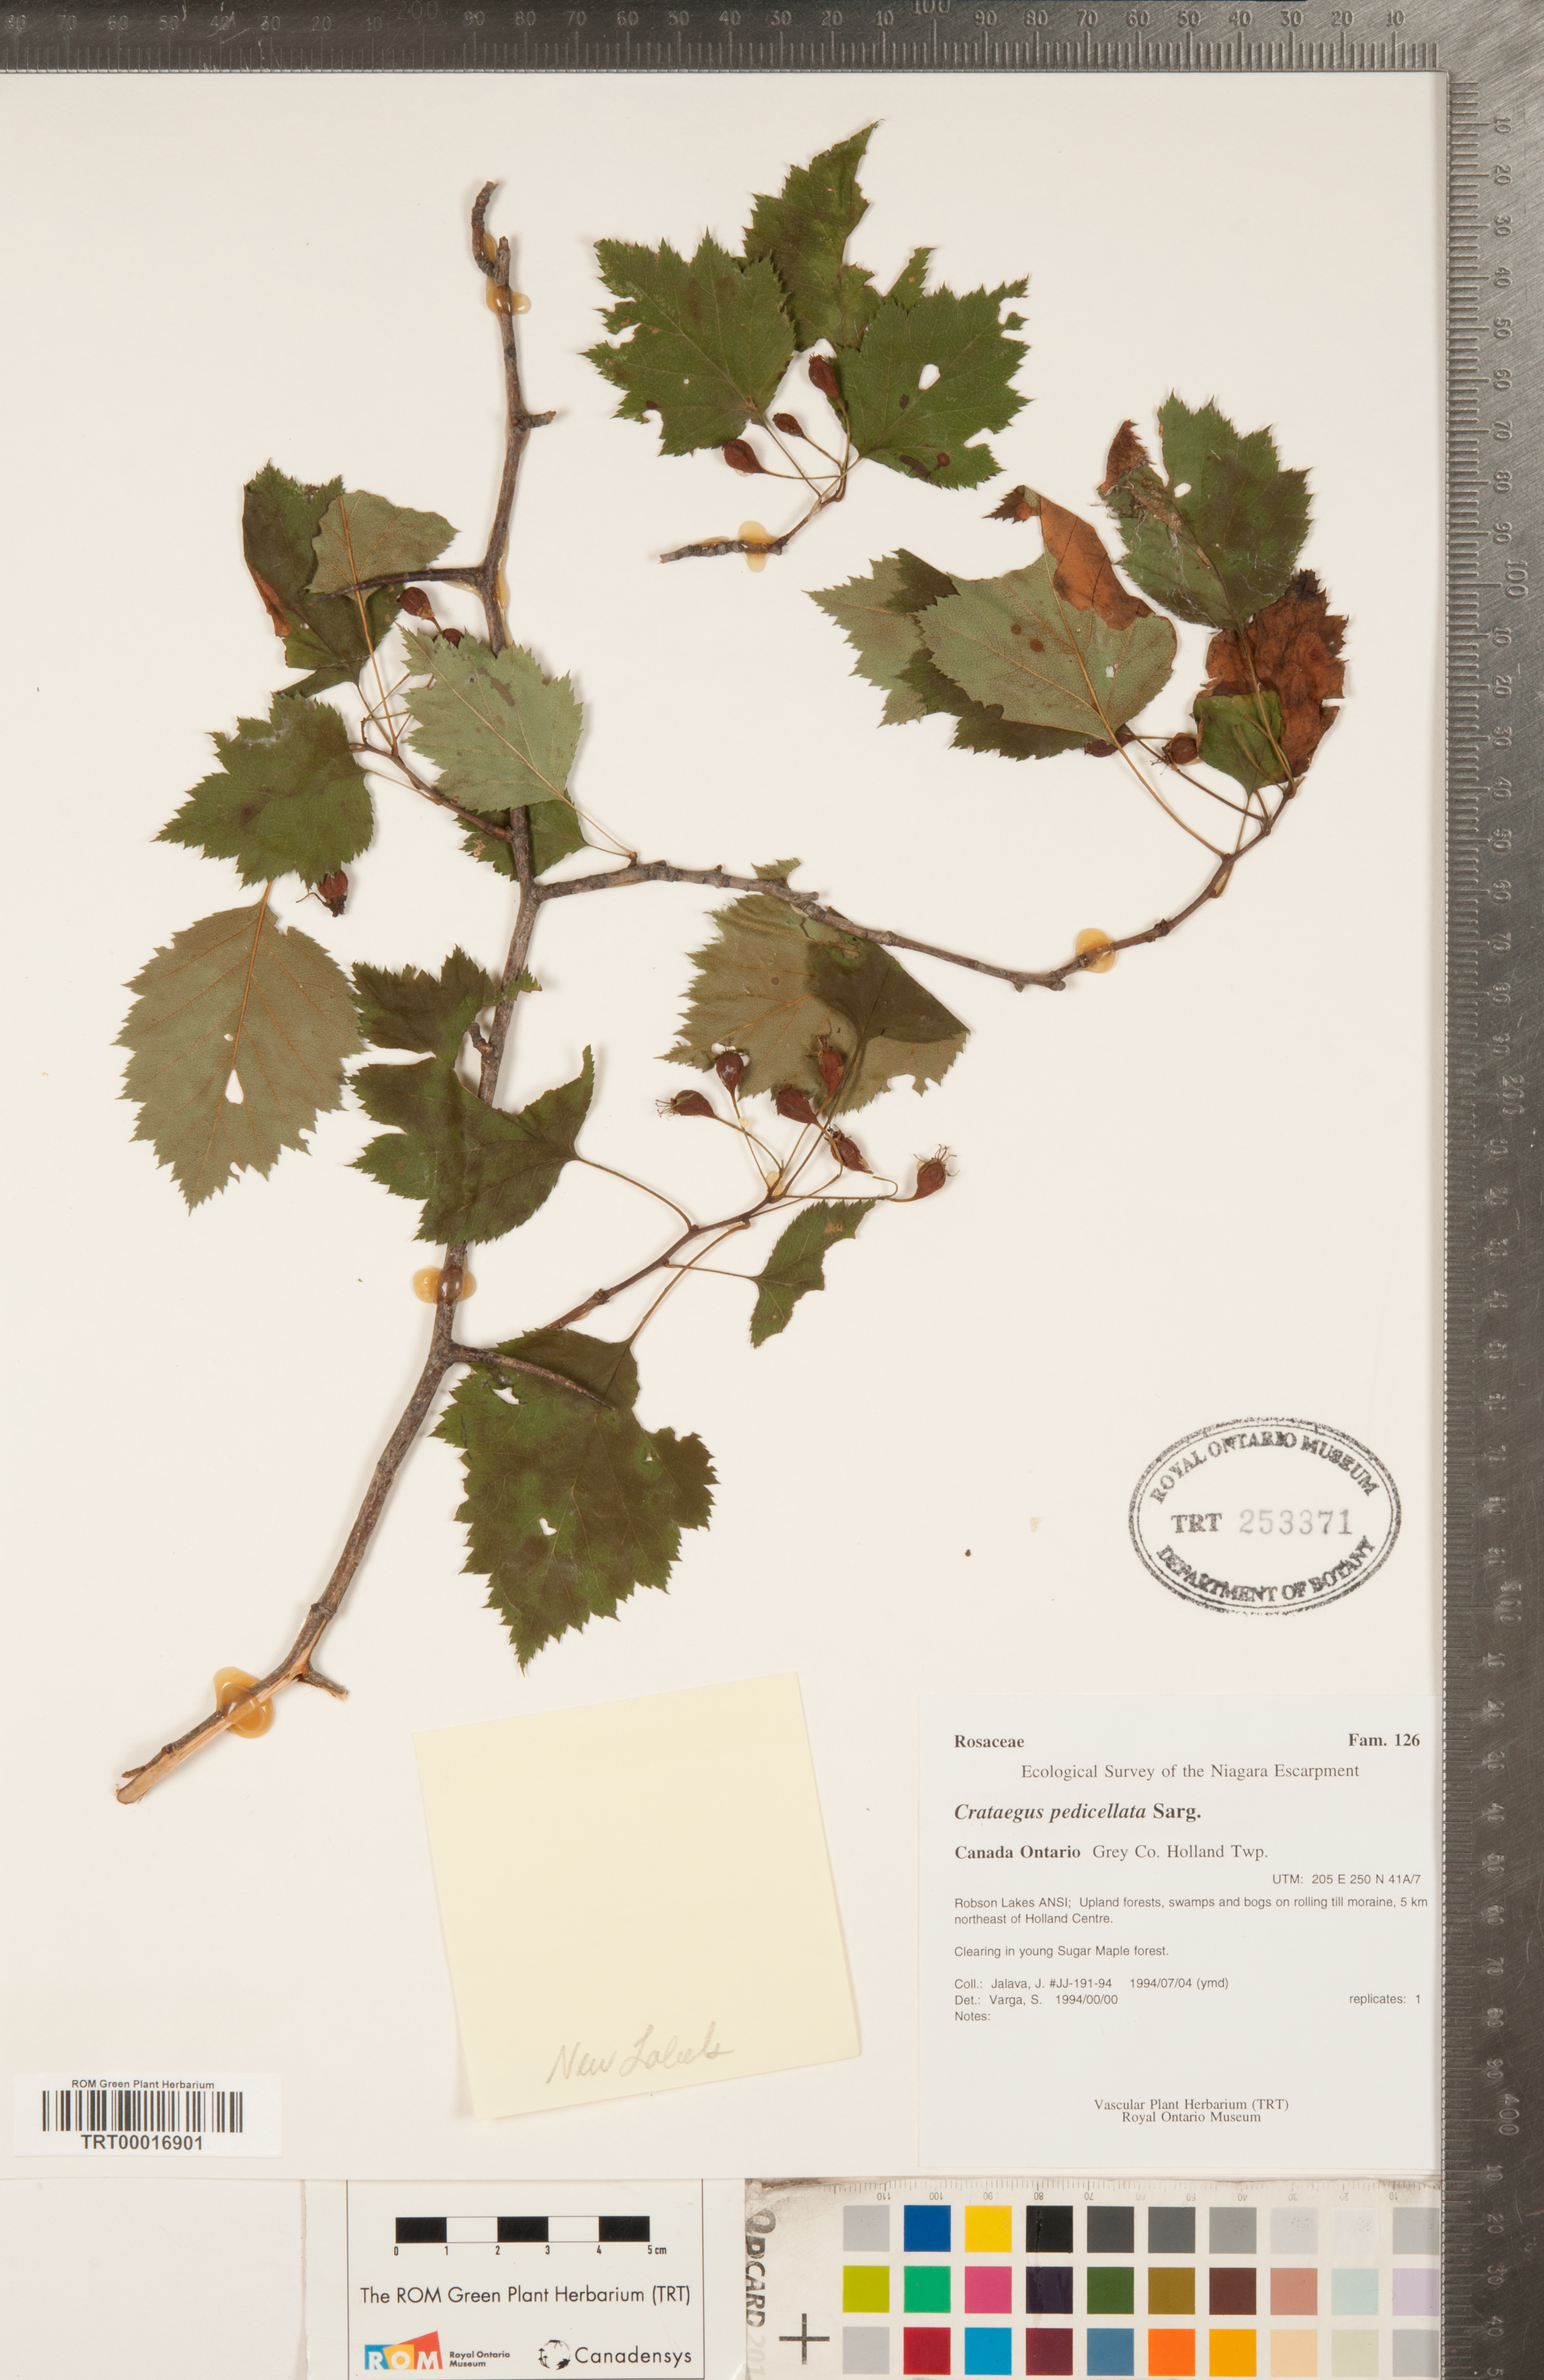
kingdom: Plantae
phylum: Tracheophyta
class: Magnoliopsida
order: Rosales
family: Rosaceae
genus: Crataegus
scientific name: Crataegus coccinea
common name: Scarlet hawthorn
